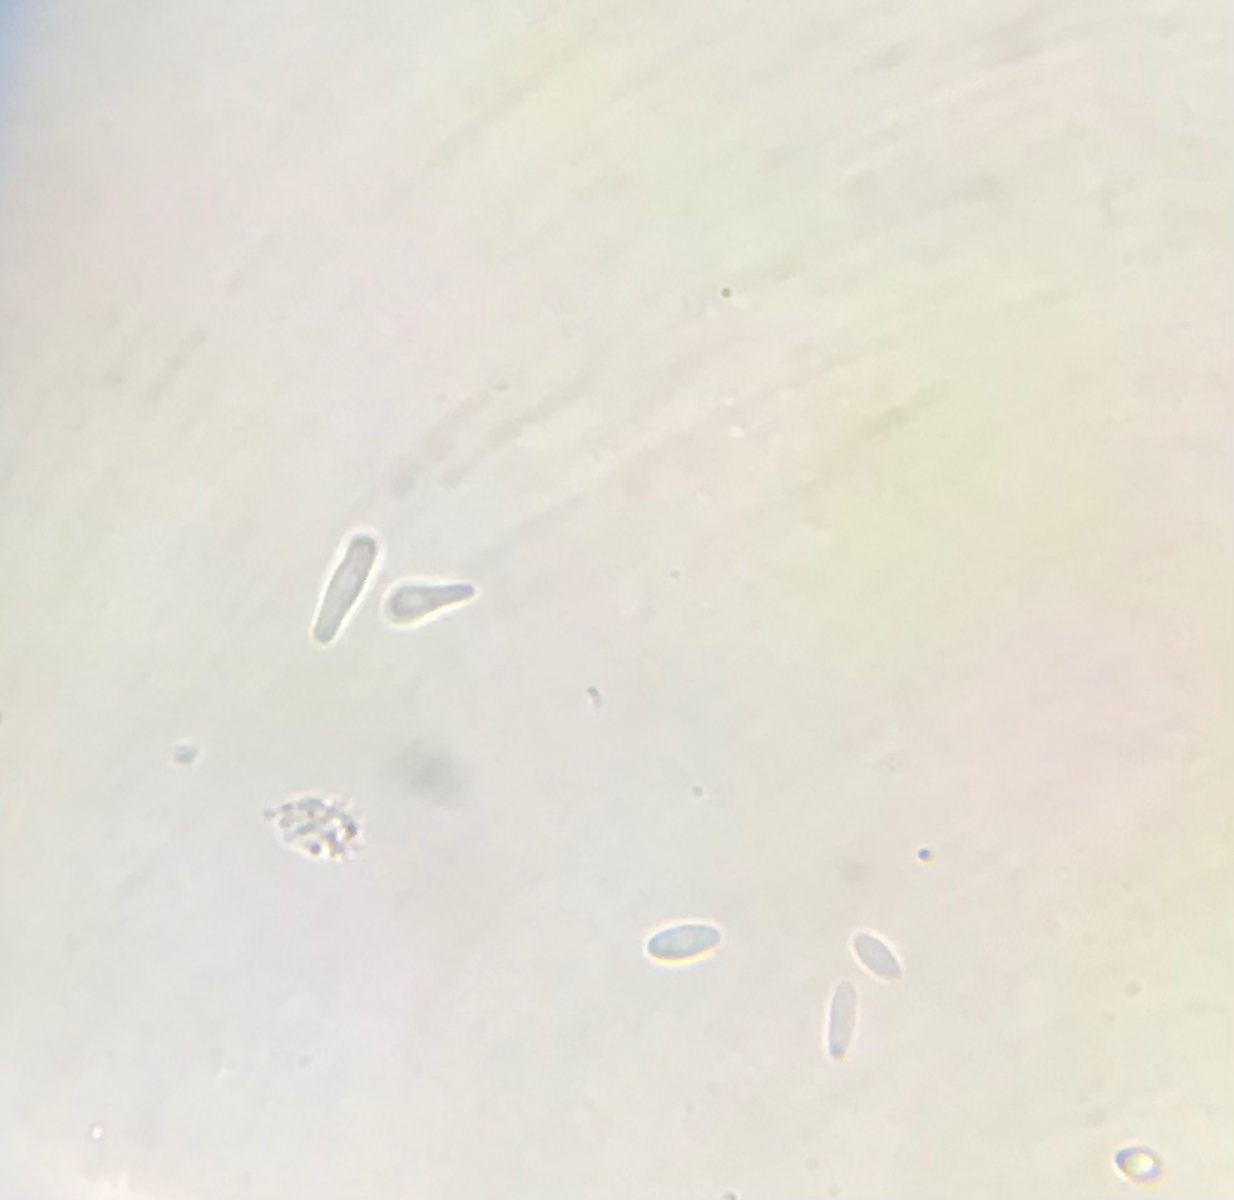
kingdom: Fungi
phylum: Ascomycota
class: Leotiomycetes
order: Helotiales
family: Lachnaceae
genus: Lachnellula
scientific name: Lachnellula subtilissima
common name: gran-frynseskive
